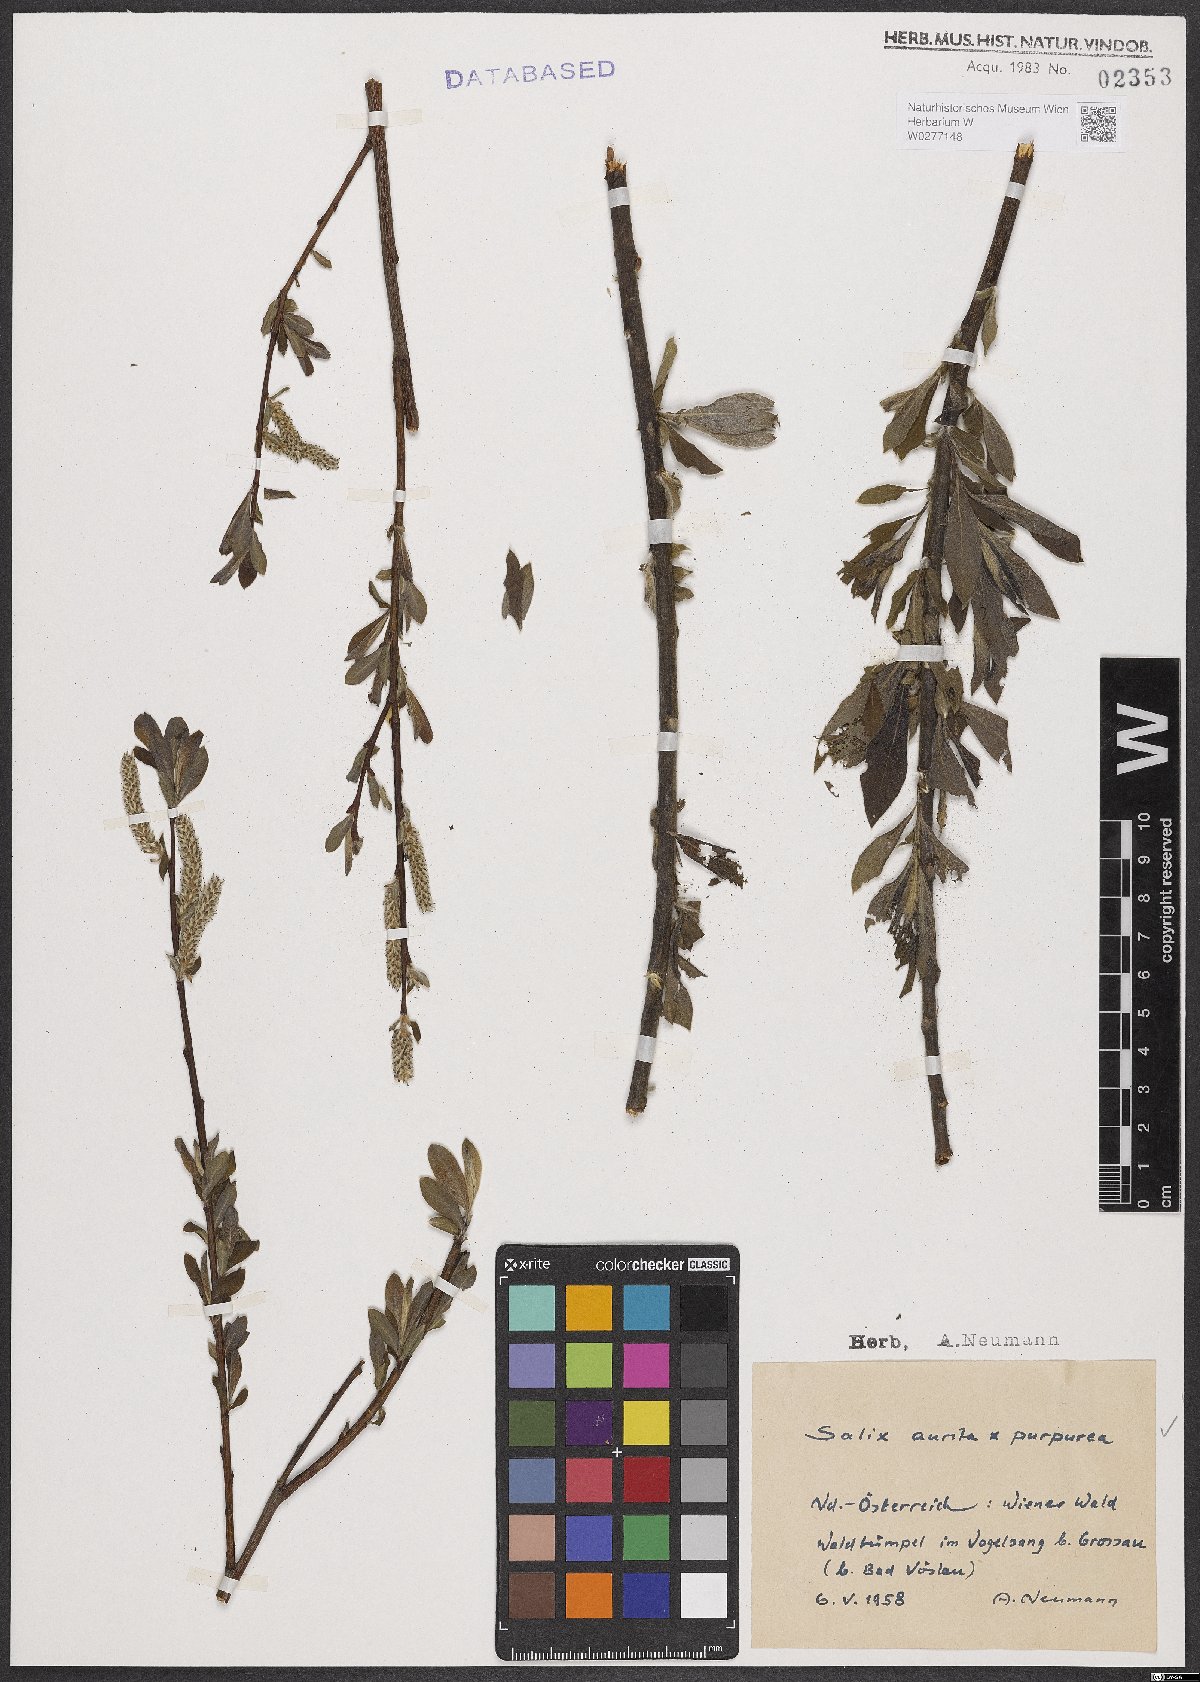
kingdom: Plantae
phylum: Tracheophyta
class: Magnoliopsida
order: Malpighiales
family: Salicaceae
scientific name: Salicaceae
